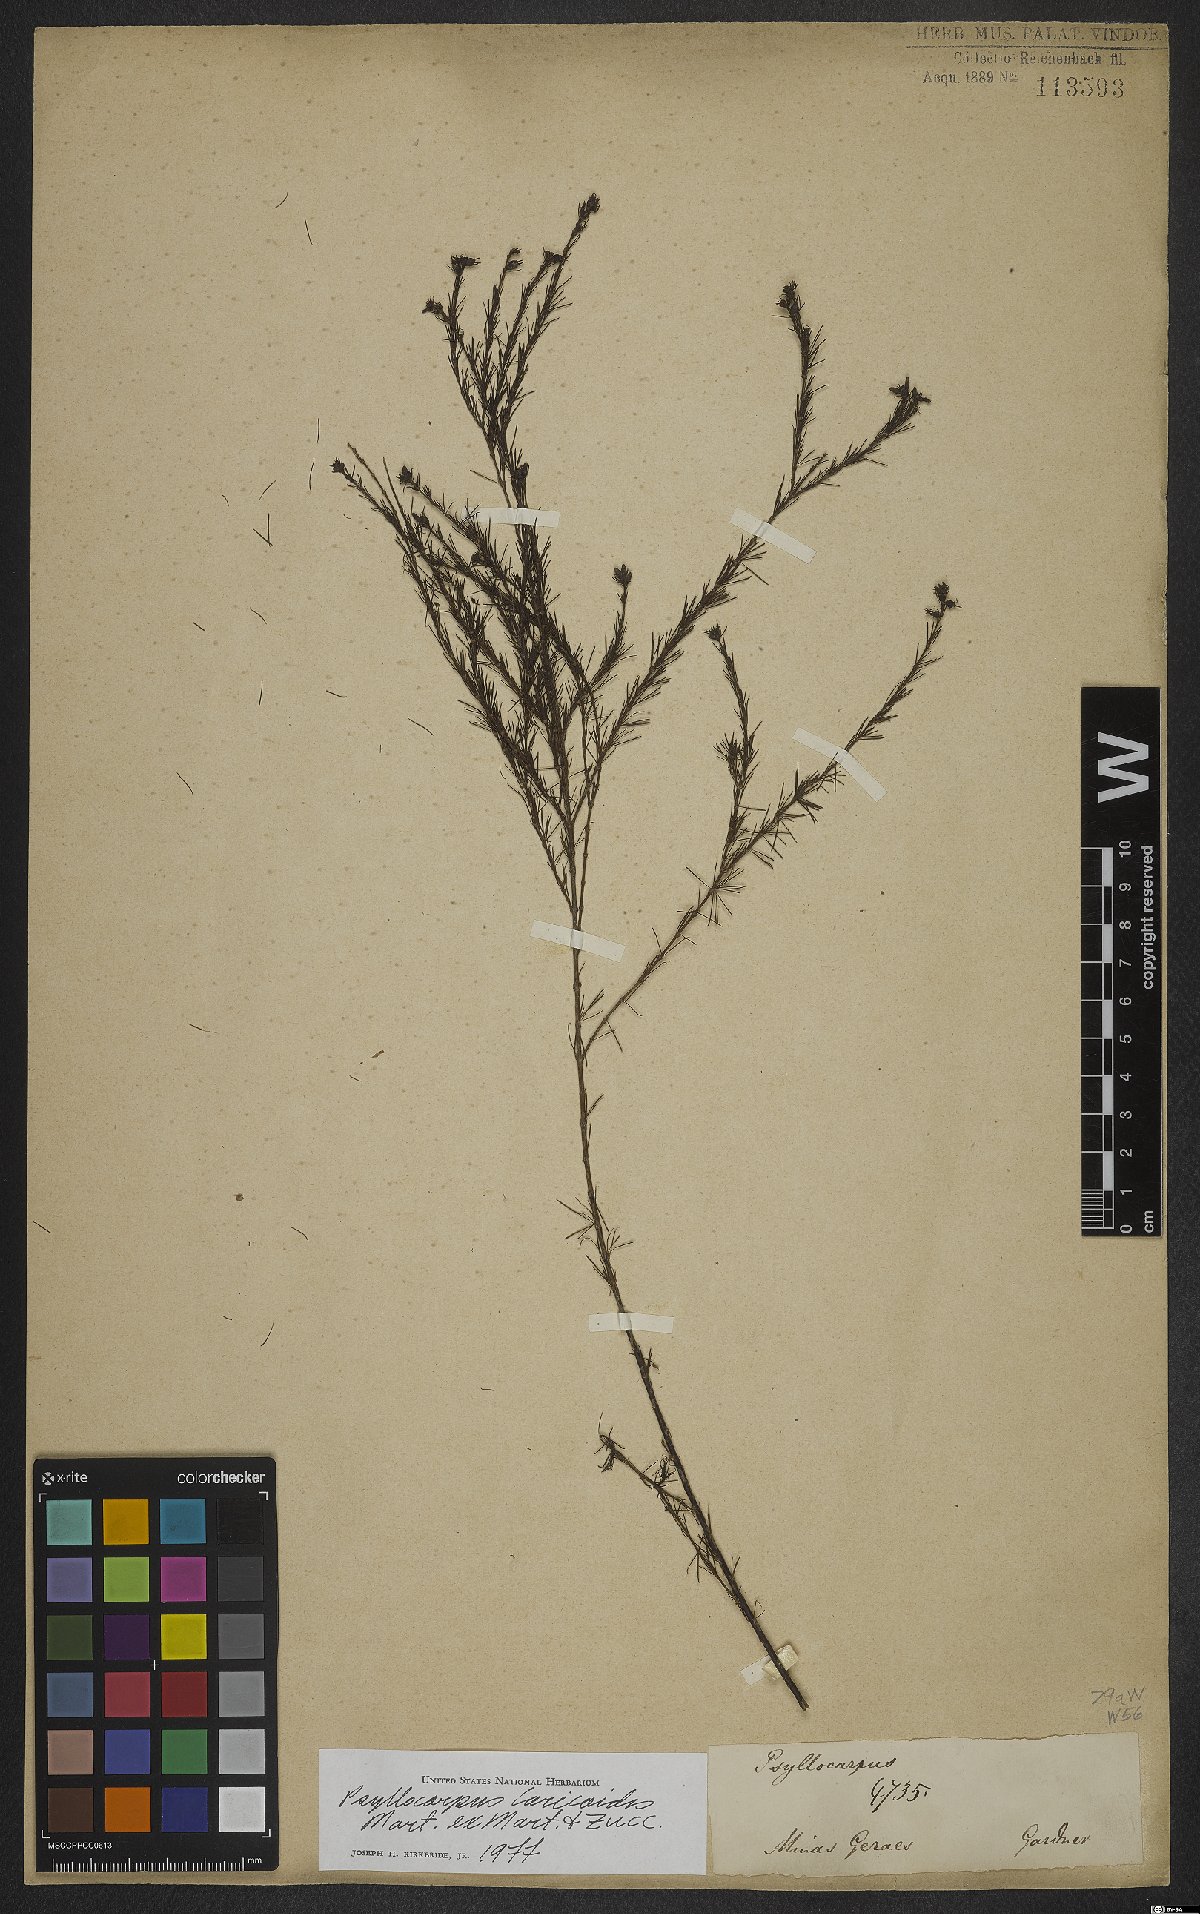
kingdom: Plantae
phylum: Tracheophyta
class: Magnoliopsida
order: Gentianales
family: Rubiaceae
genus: Psyllocarpus
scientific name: Psyllocarpus laricoides
